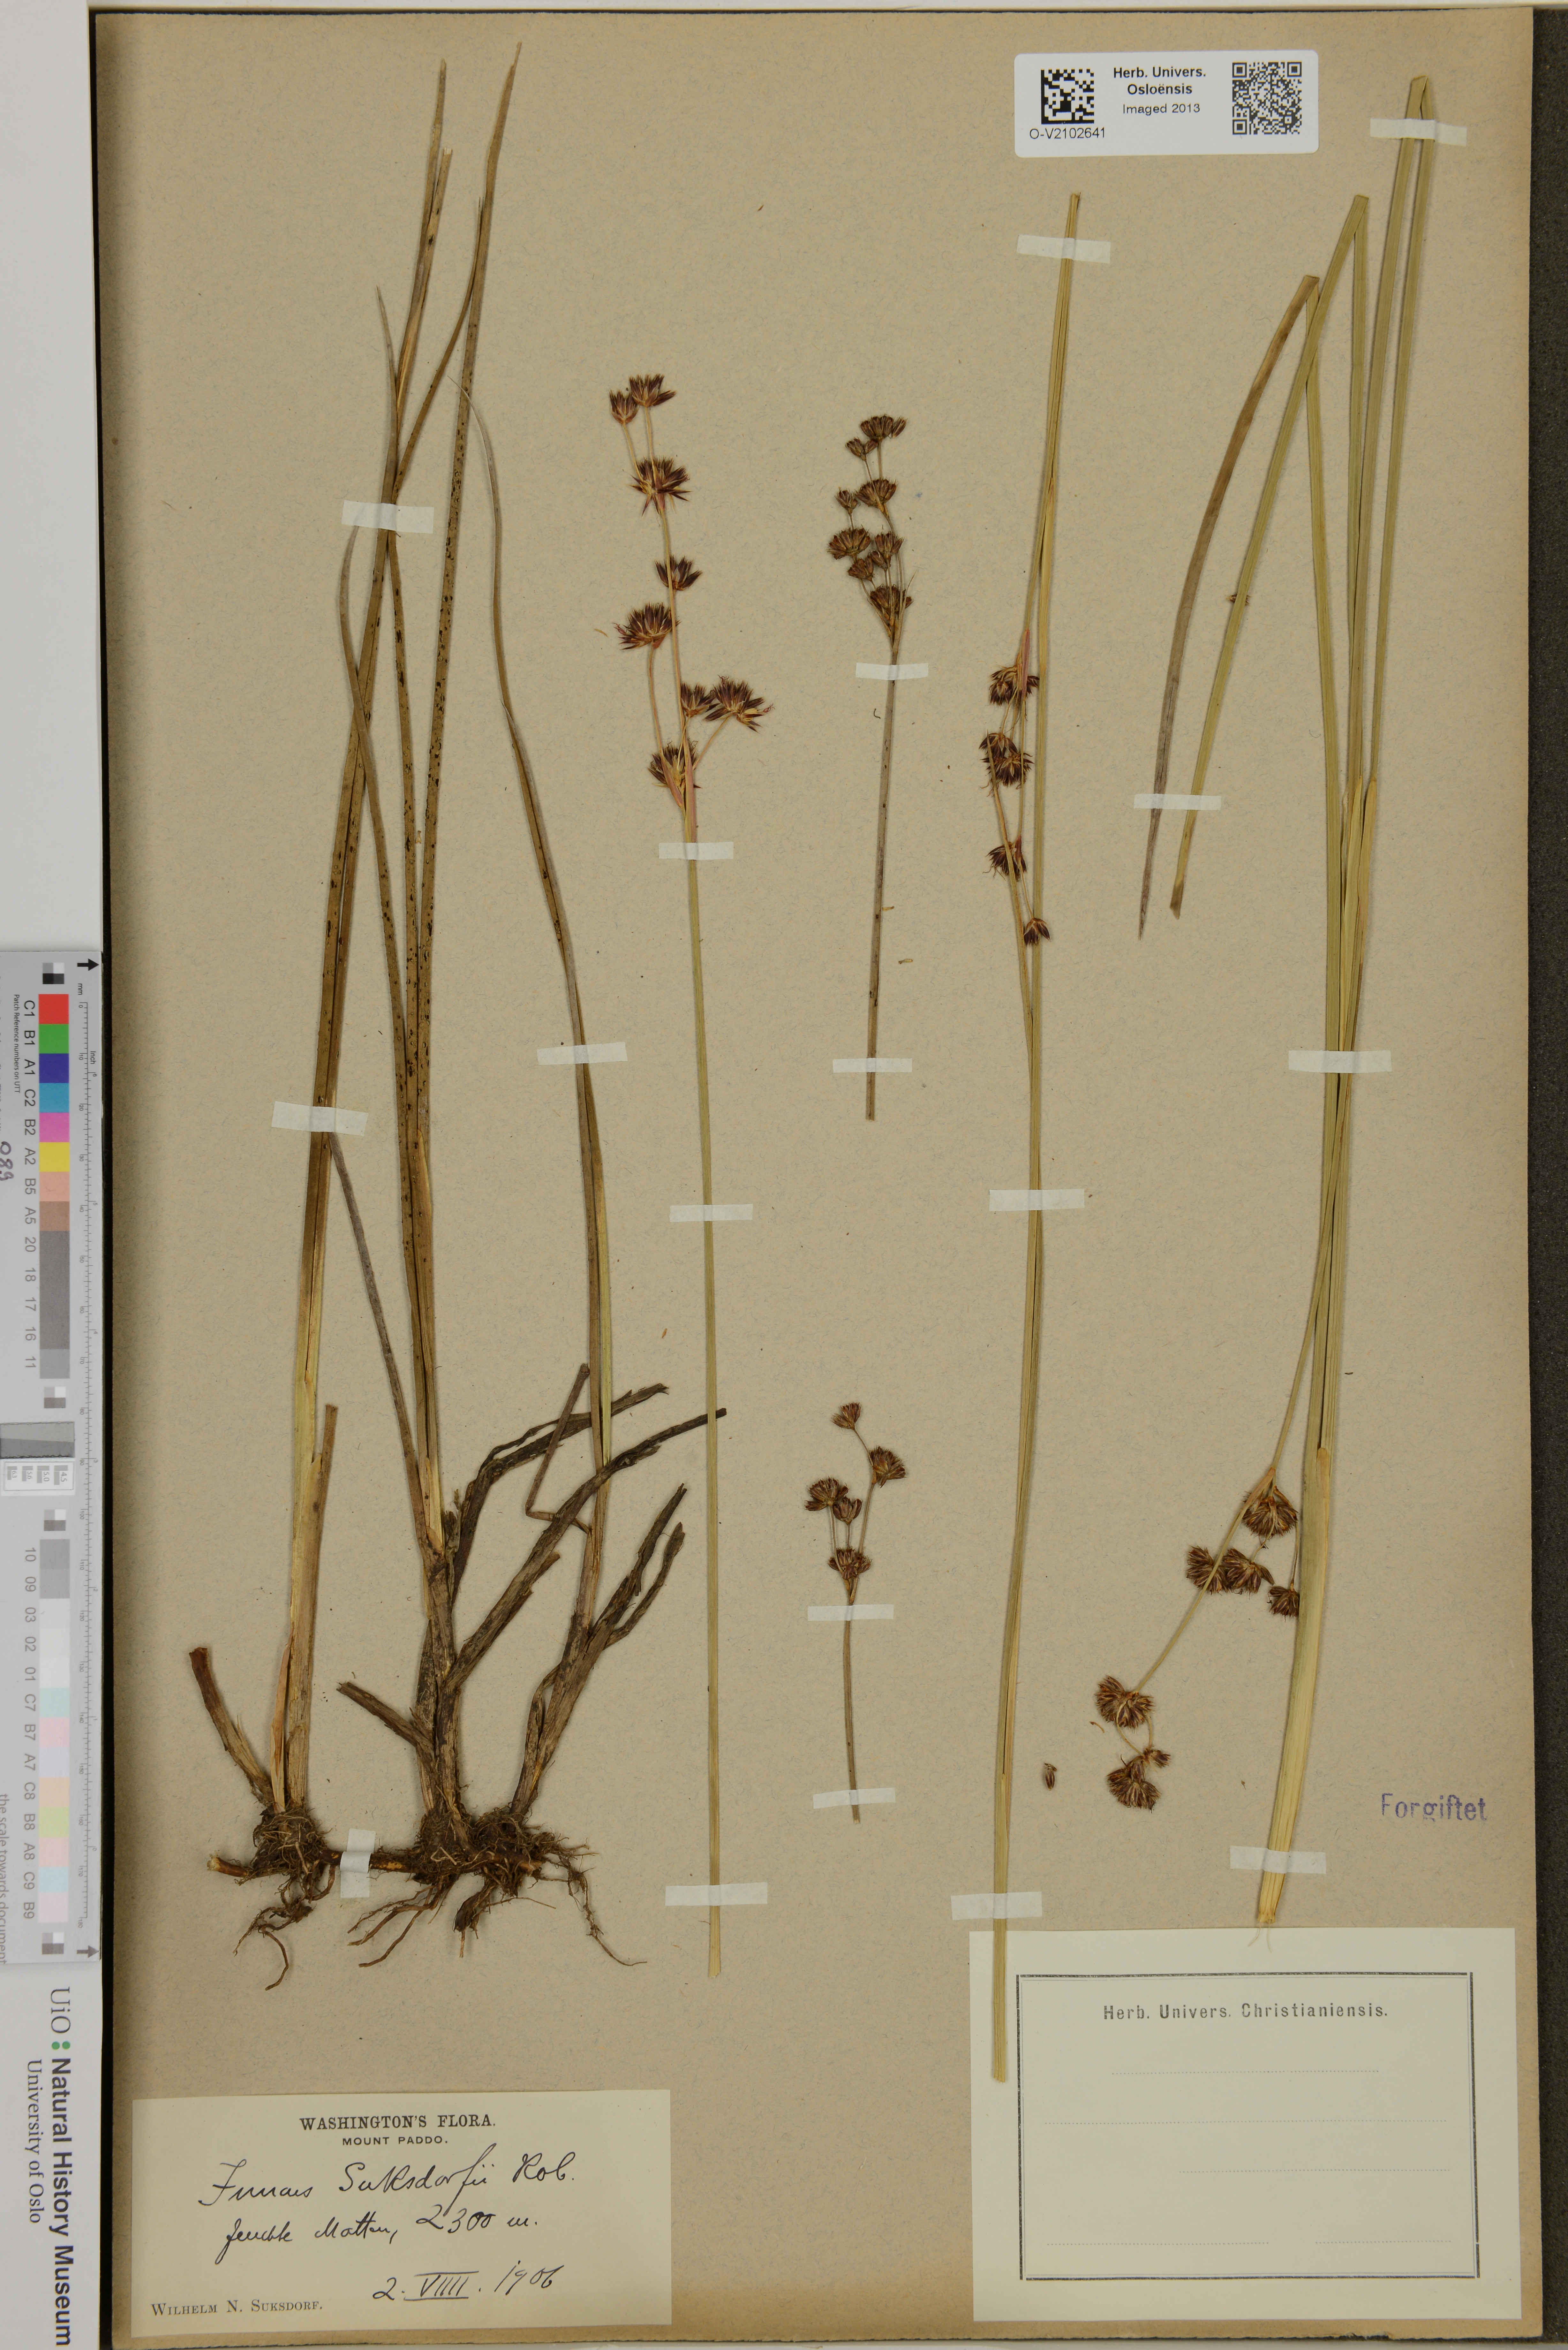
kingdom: Plantae
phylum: Tracheophyta
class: Liliopsida
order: Poales
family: Juncaceae
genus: Juncus
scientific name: Juncus nevadensis
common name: Nevada rush
